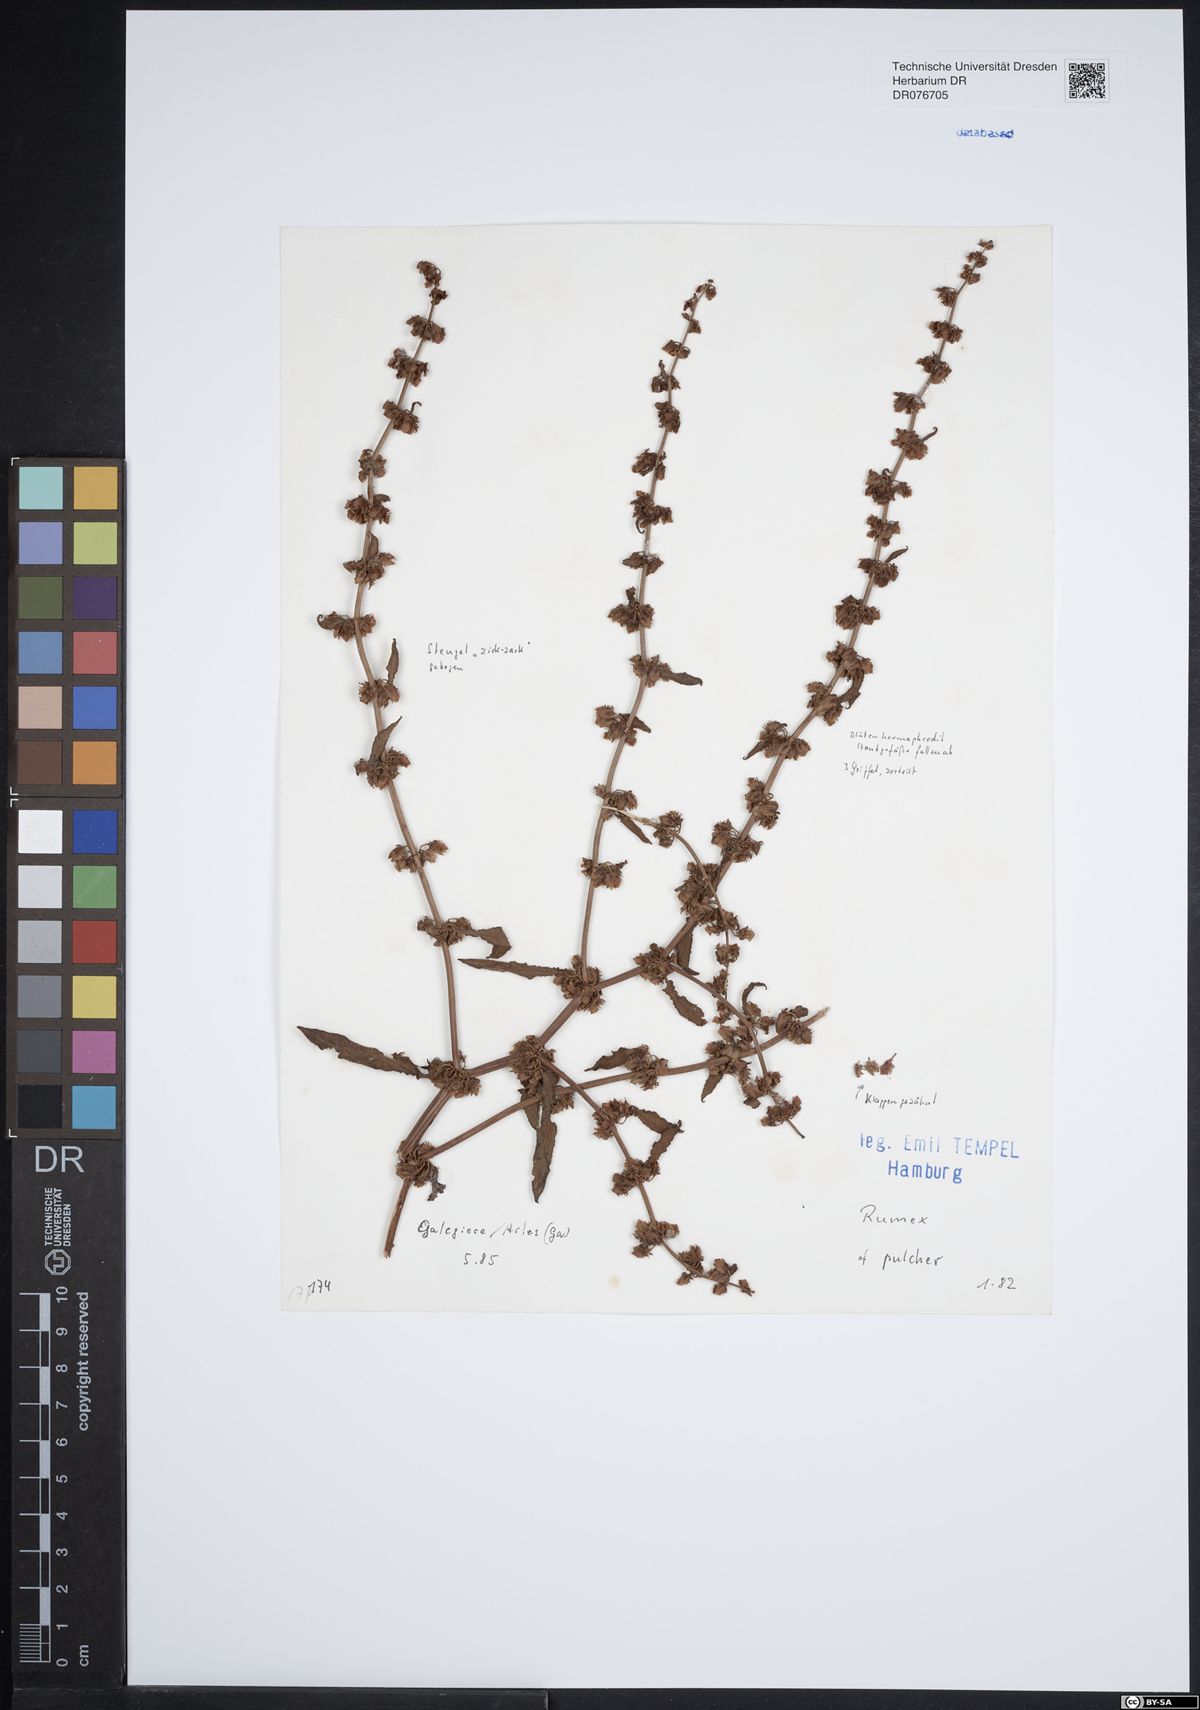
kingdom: Plantae
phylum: Tracheophyta
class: Magnoliopsida
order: Caryophyllales
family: Polygonaceae
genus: Rumex
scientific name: Rumex pulcher
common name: Fiddle dock
